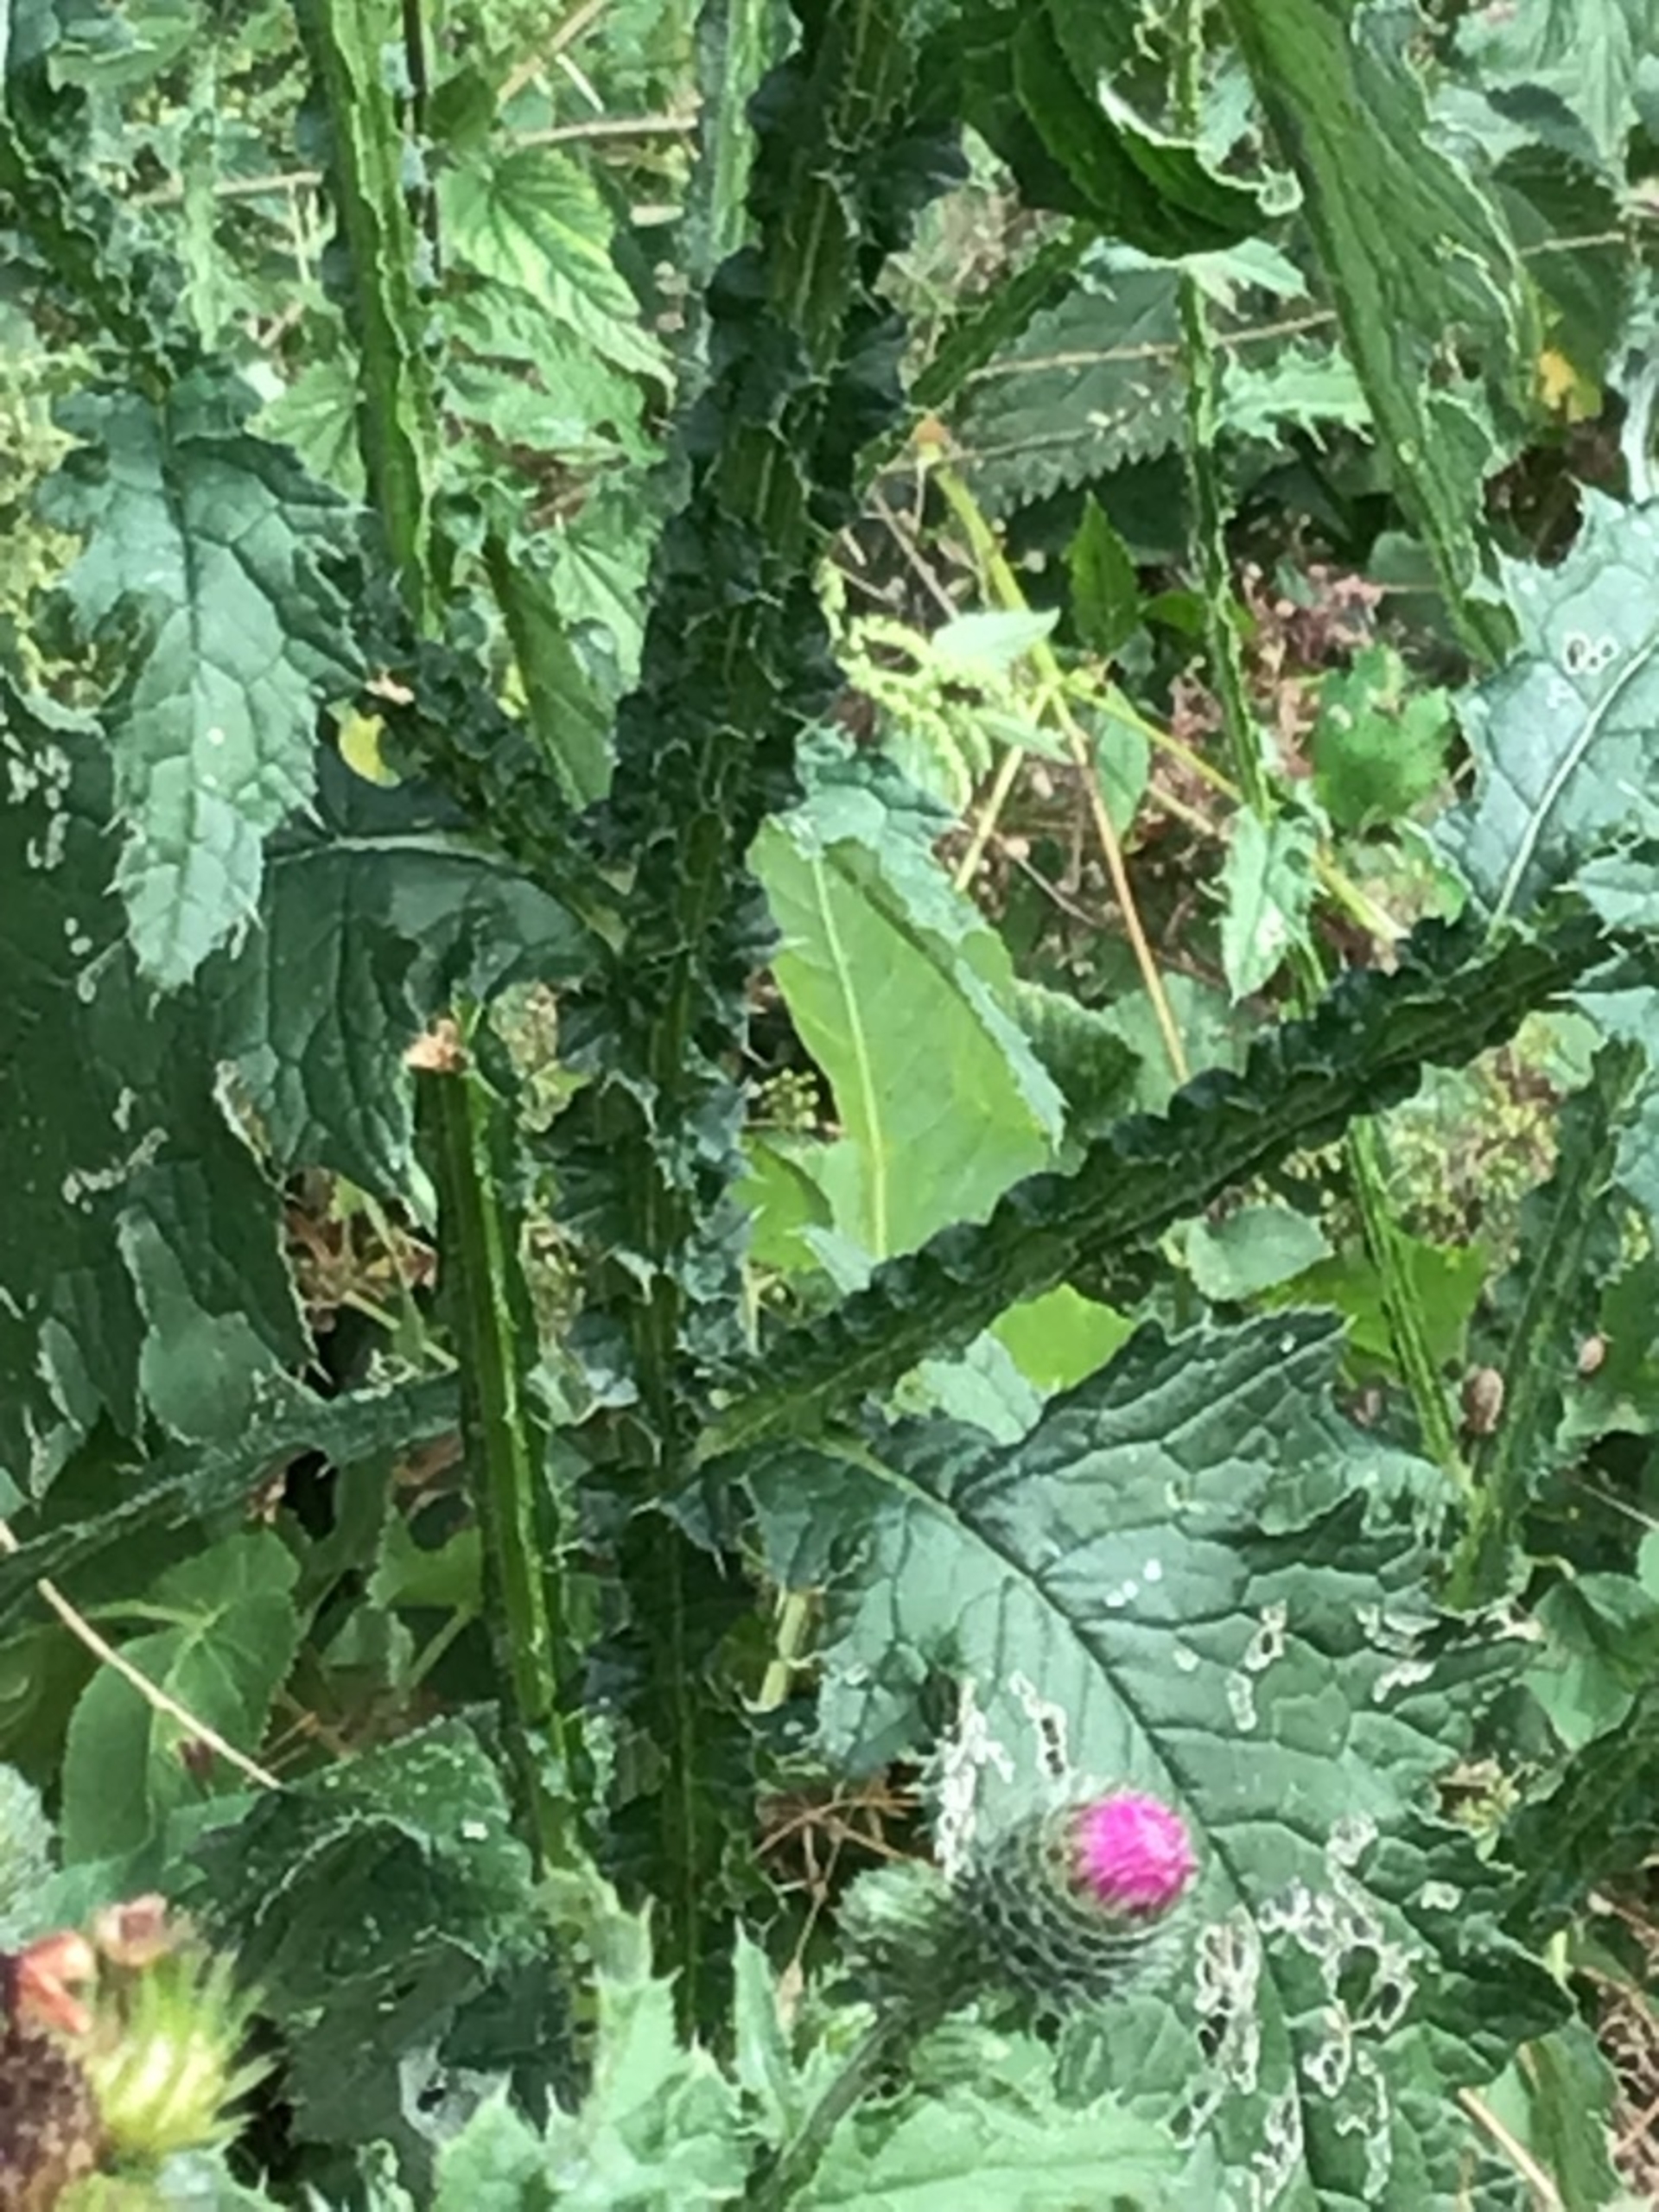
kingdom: Plantae
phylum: Tracheophyta
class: Magnoliopsida
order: Asterales
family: Asteraceae
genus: Carduus
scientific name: Carduus crispus
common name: Kruset tidsel
